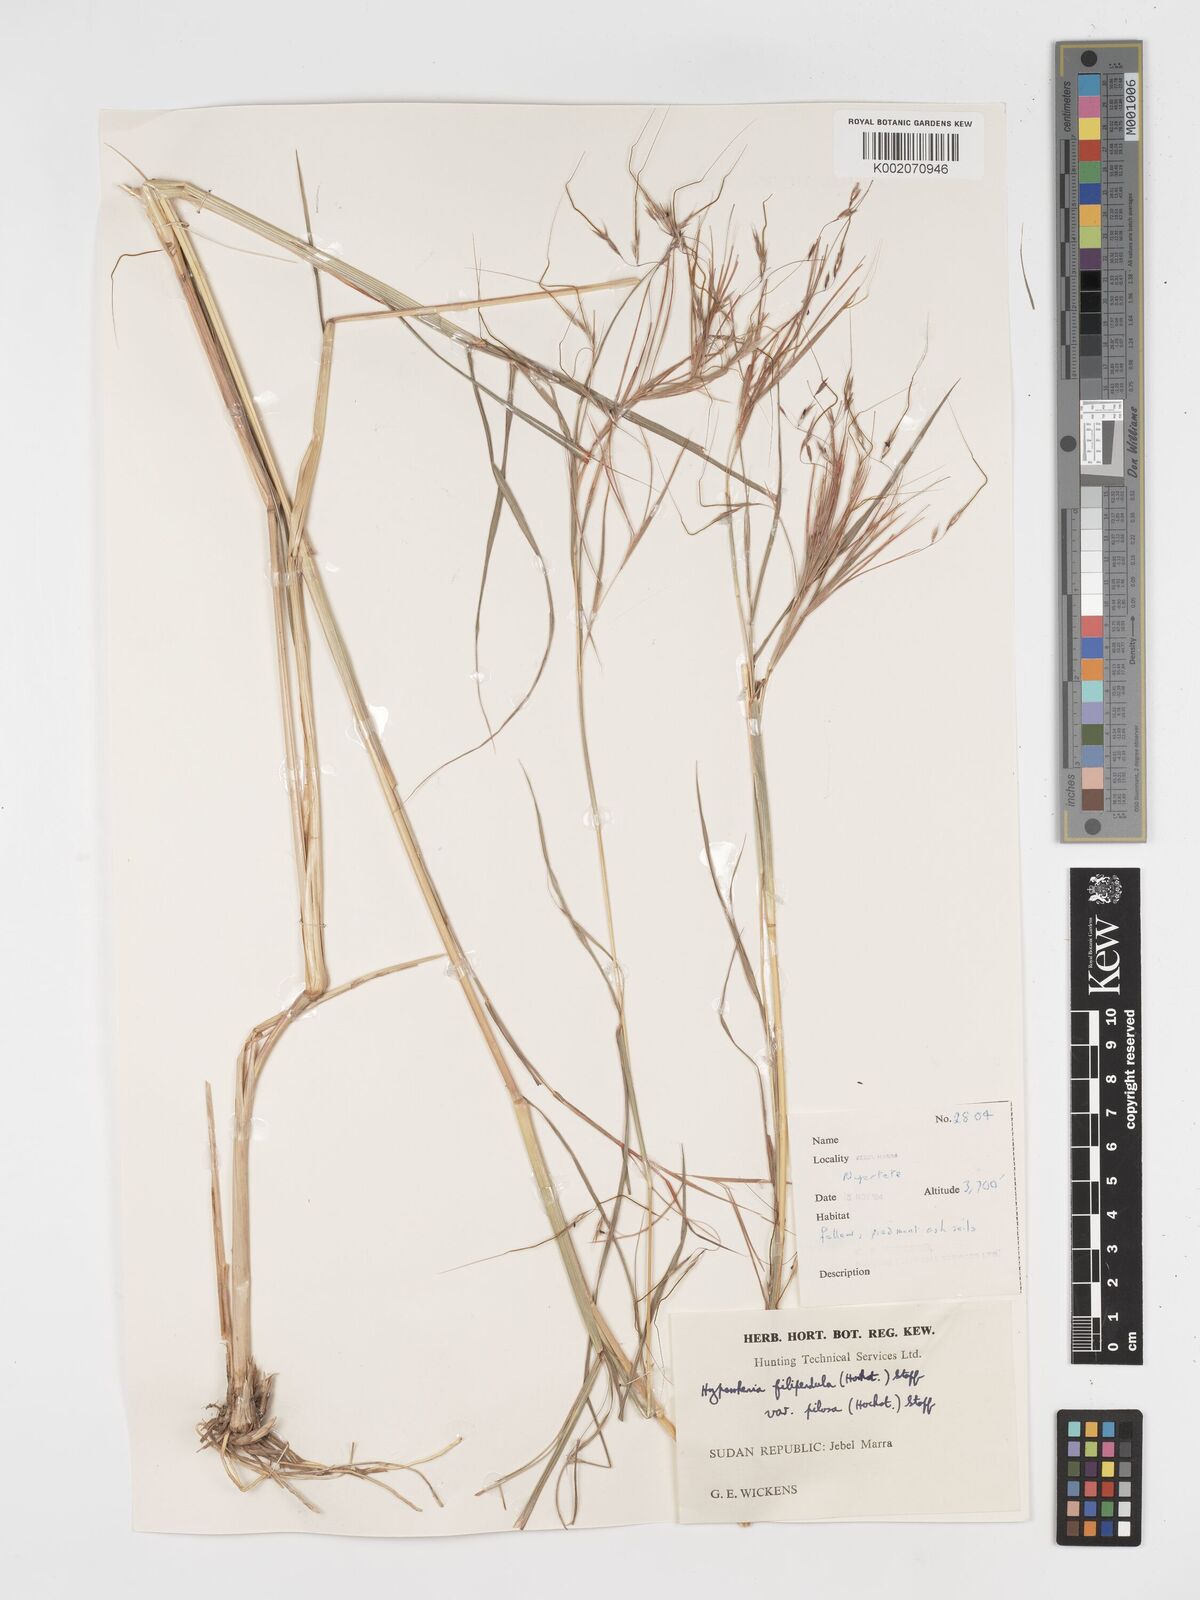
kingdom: Plantae
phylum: Tracheophyta
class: Liliopsida
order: Poales
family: Poaceae
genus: Hyparrhenia
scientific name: Hyparrhenia filipendula
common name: Tambookie grass
